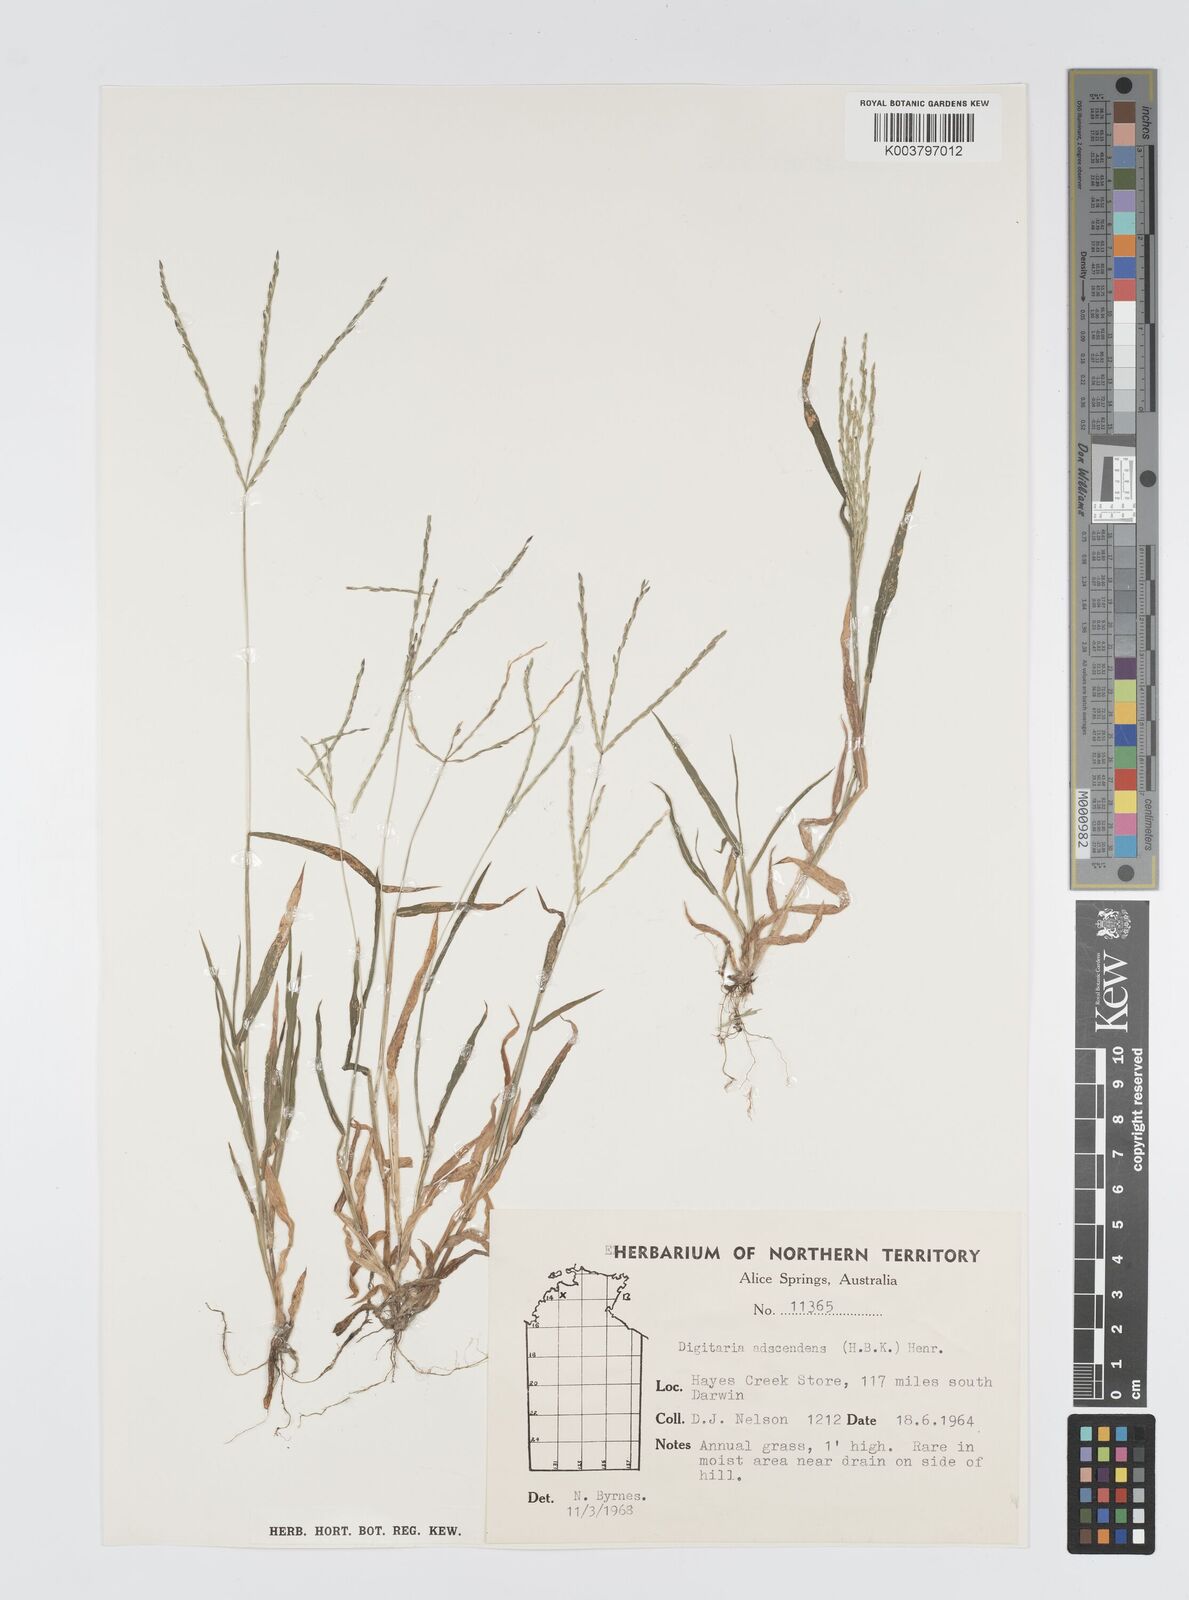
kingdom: Plantae
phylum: Tracheophyta
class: Liliopsida
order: Poales
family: Poaceae
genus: Digitaria
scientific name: Digitaria ciliaris
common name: Tropical finger-grass
